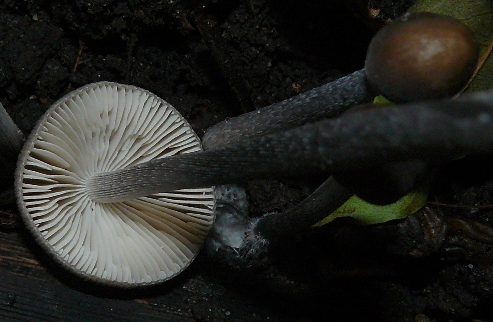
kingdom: Fungi
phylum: Basidiomycota
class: Agaricomycetes
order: Agaricales
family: Mycenaceae
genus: Mycena
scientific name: Mycena polygramma
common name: mangestribet huesvamp
